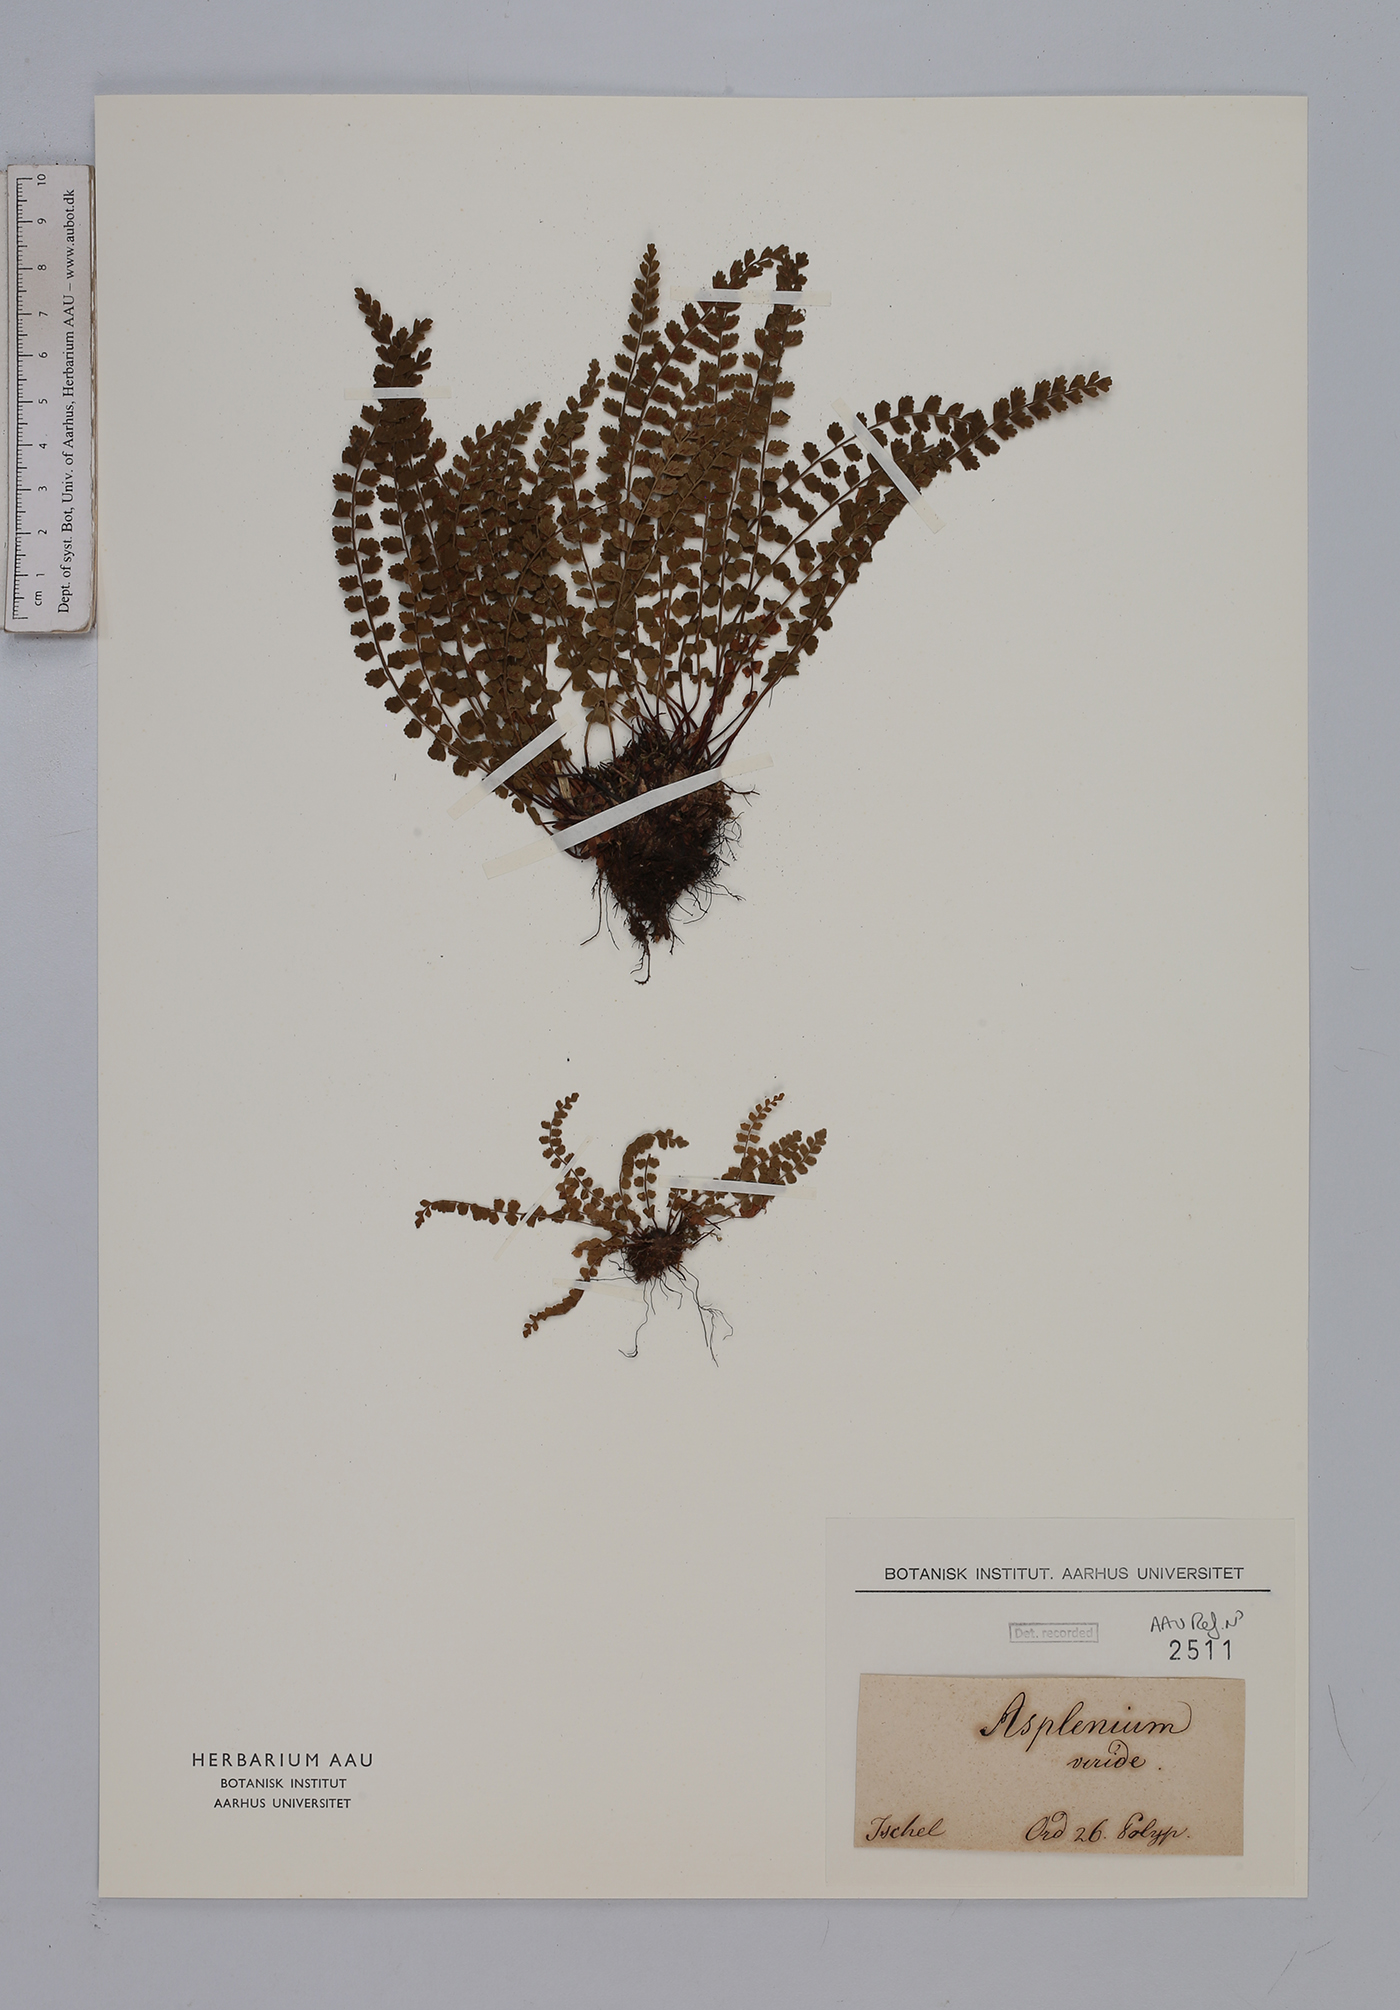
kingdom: Plantae
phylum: Tracheophyta
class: Polypodiopsida
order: Polypodiales
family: Aspleniaceae
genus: Asplenium
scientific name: Asplenium viride
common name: Green spleenwort
